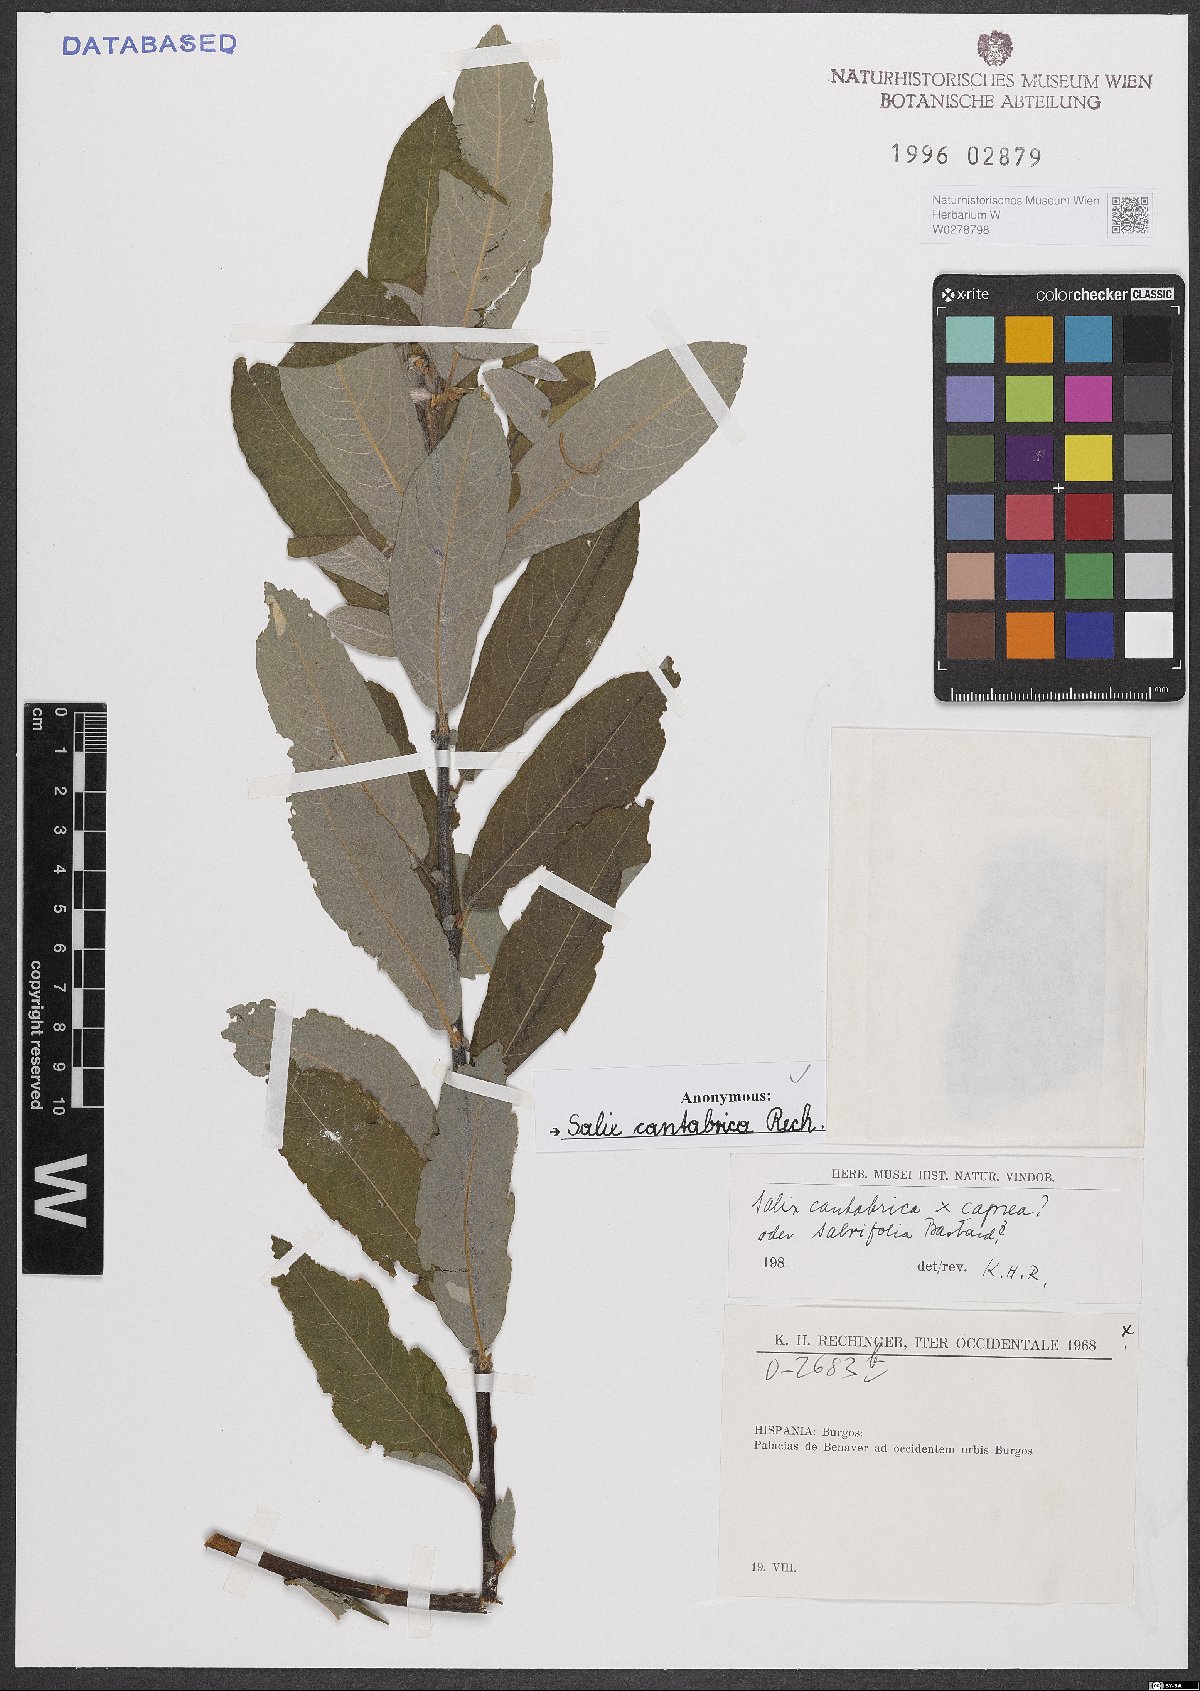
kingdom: Plantae
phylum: Tracheophyta
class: Magnoliopsida
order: Malpighiales
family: Salicaceae
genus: Salix
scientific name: Salix cantabrica
